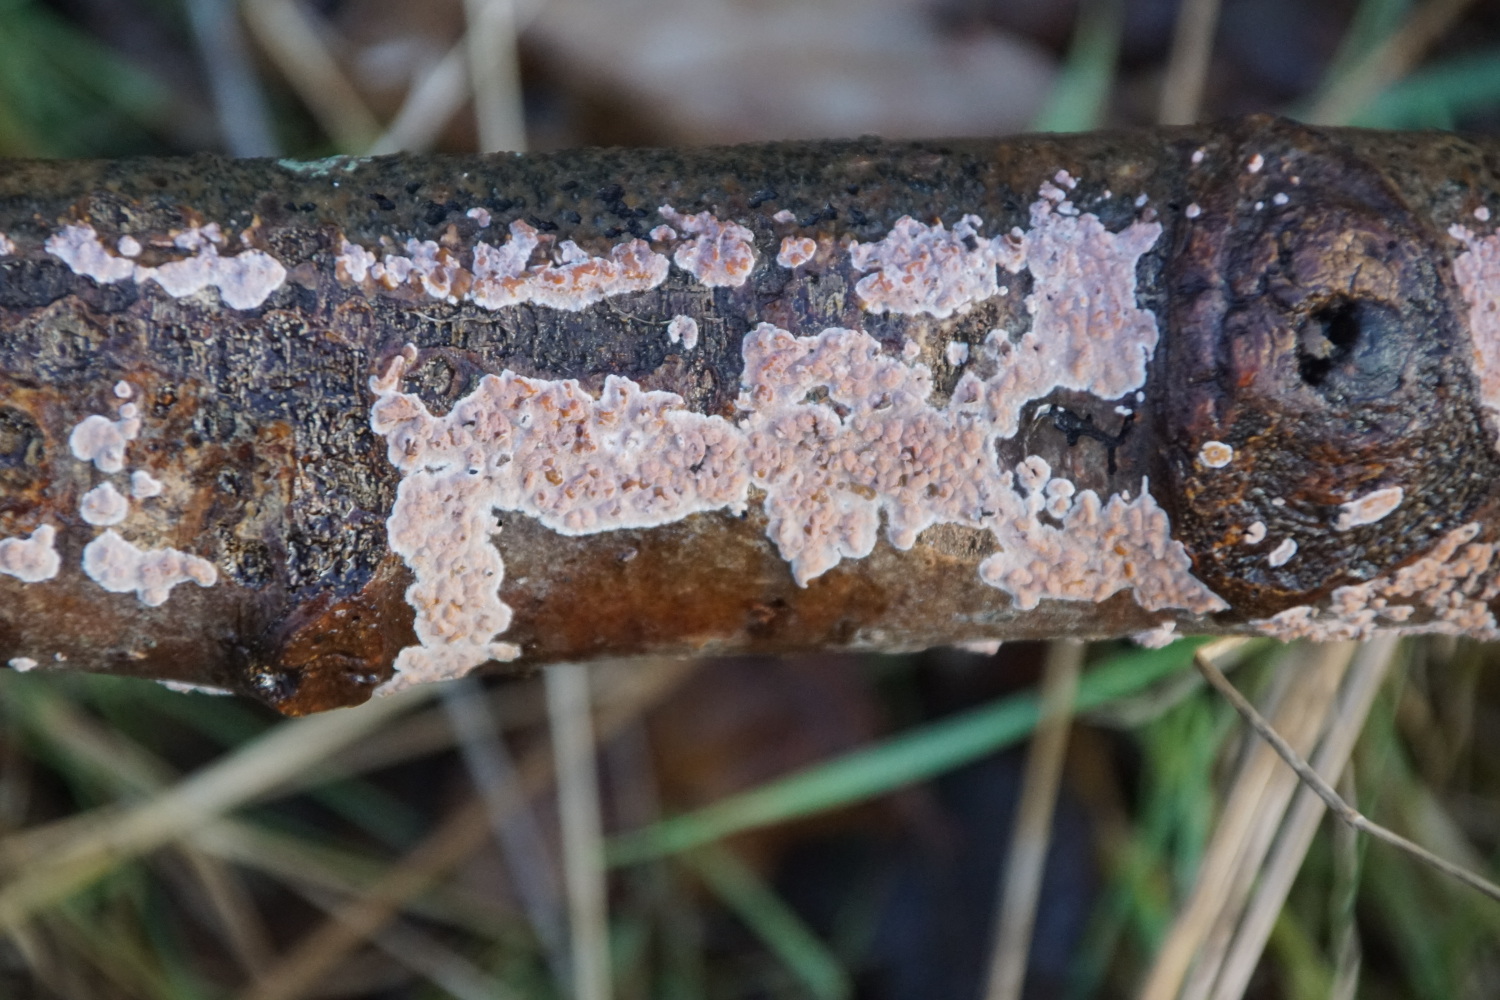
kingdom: Fungi
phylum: Basidiomycota
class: Agaricomycetes
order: Russulales
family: Peniophoraceae
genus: Peniophora
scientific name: Peniophora polygonia
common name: polygon-voksskind
